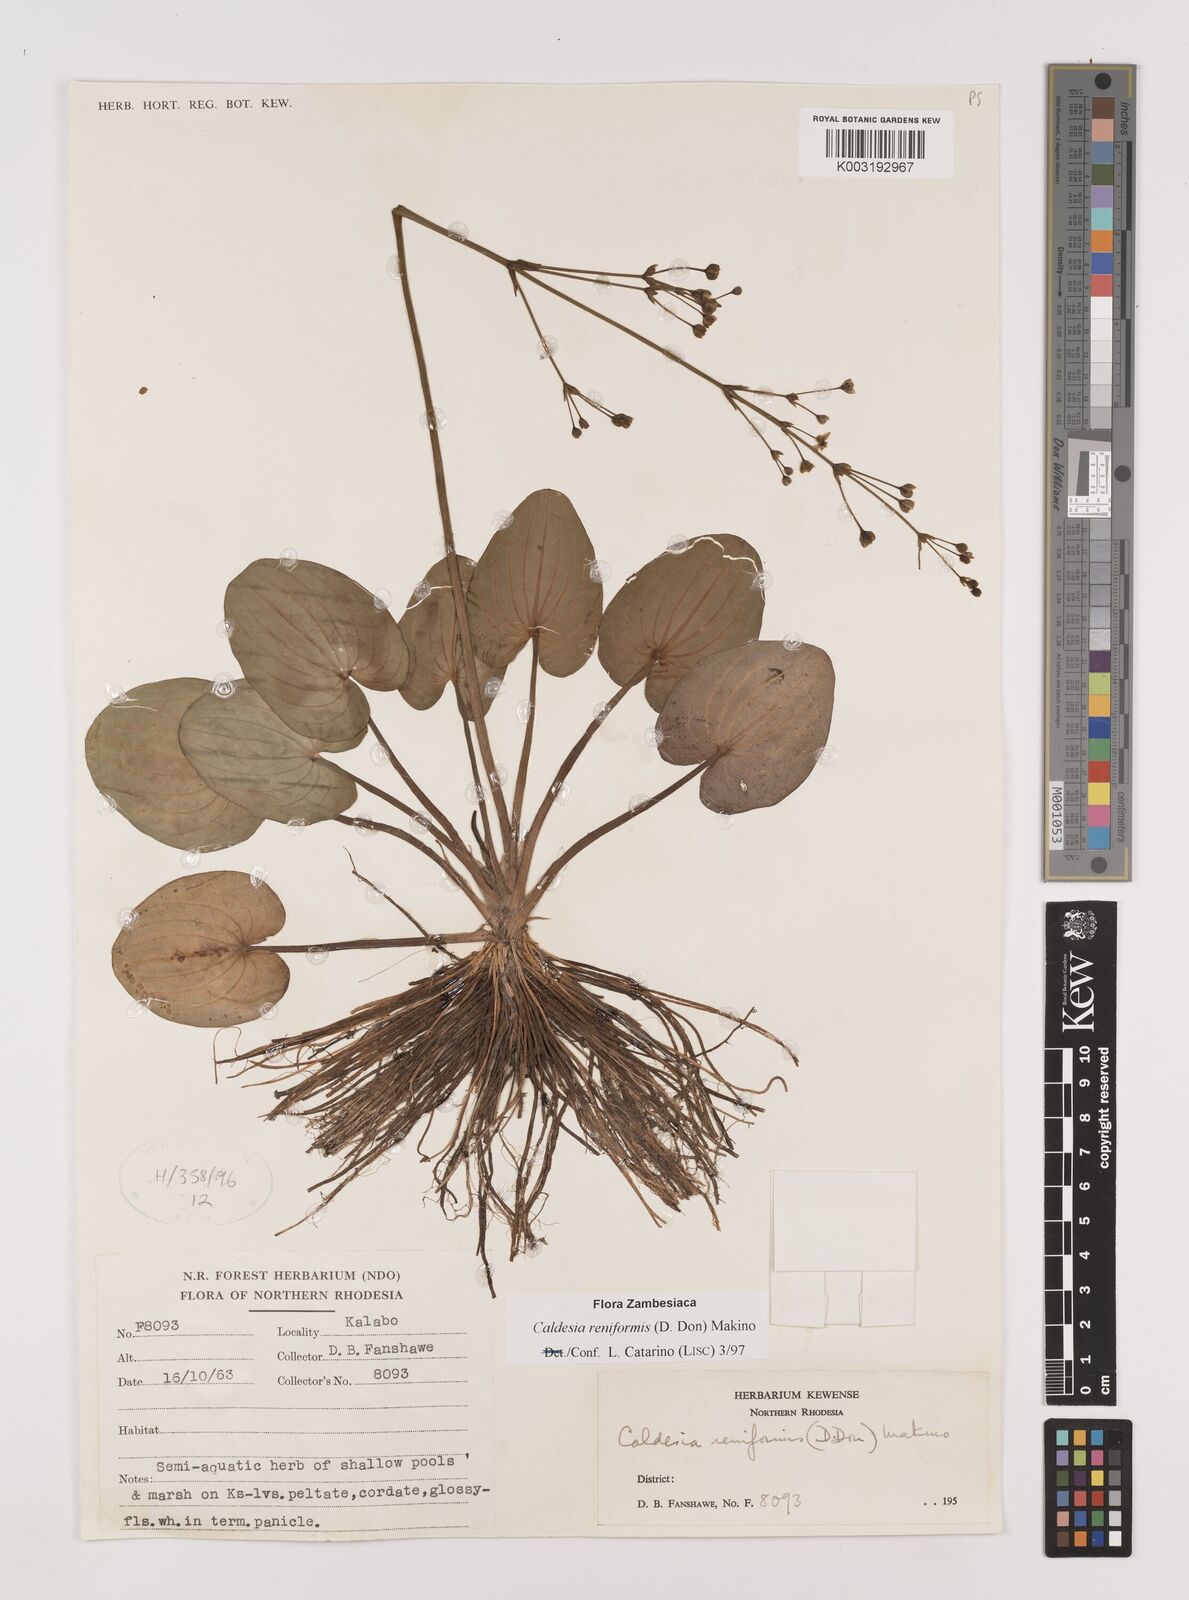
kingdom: Plantae
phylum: Tracheophyta
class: Liliopsida
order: Alismatales
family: Alismataceae
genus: Caldesia
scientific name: Caldesia parnassifolia
